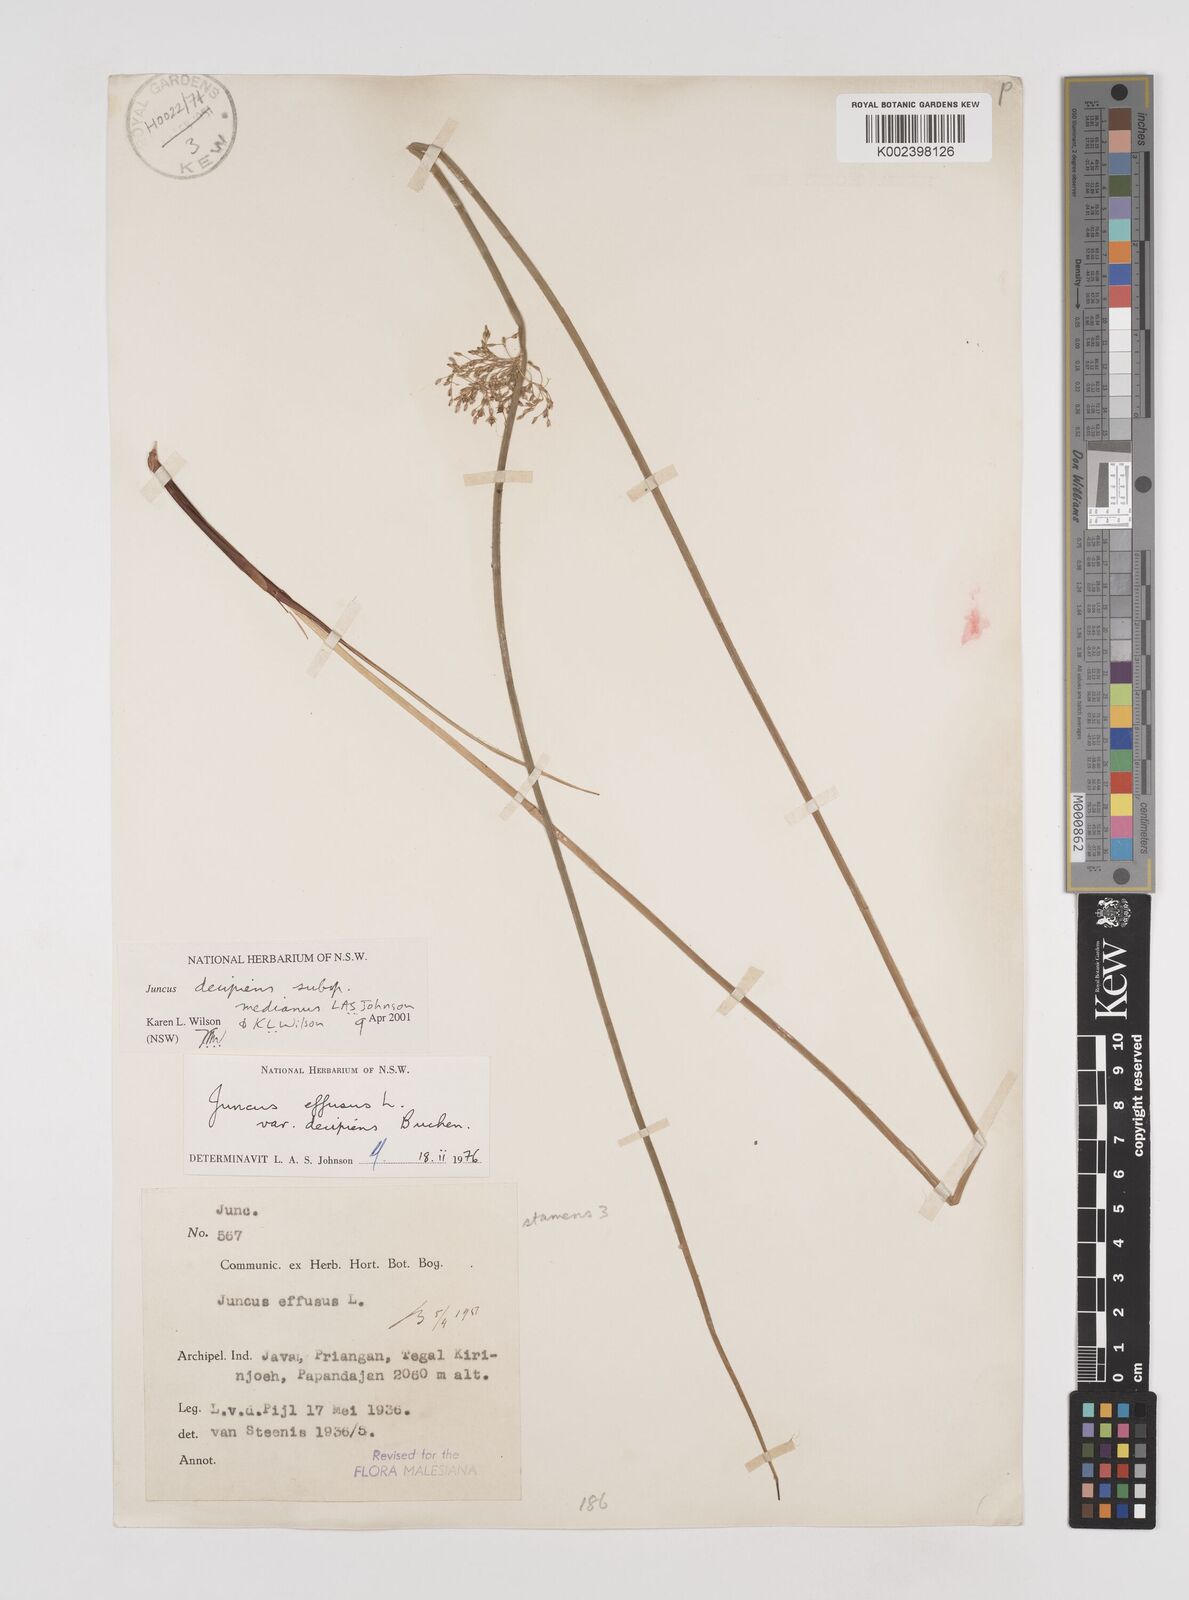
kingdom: Plantae
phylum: Tracheophyta
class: Liliopsida
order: Poales
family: Juncaceae
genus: Juncus
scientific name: Juncus decipiens
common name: Lamp rush
